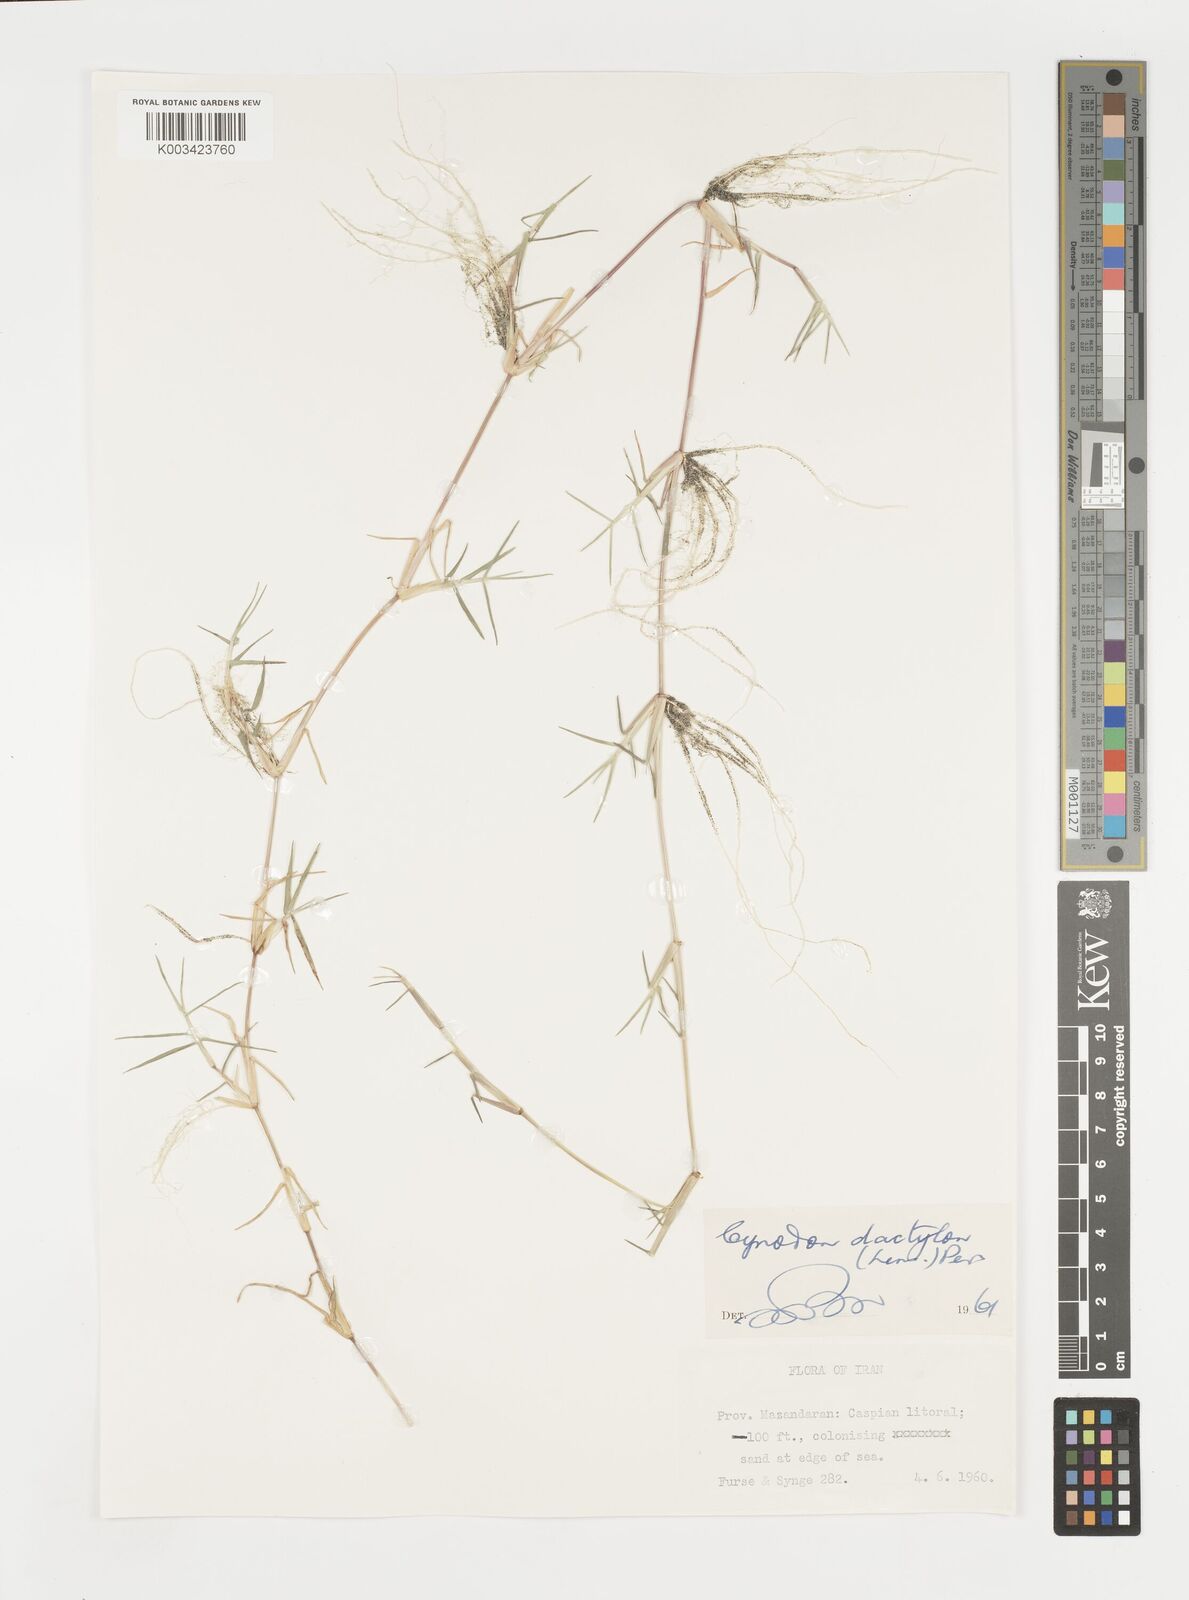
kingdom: Plantae
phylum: Tracheophyta
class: Liliopsida
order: Poales
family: Poaceae
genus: Cynodon
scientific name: Cynodon dactylon
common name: Bermuda grass
